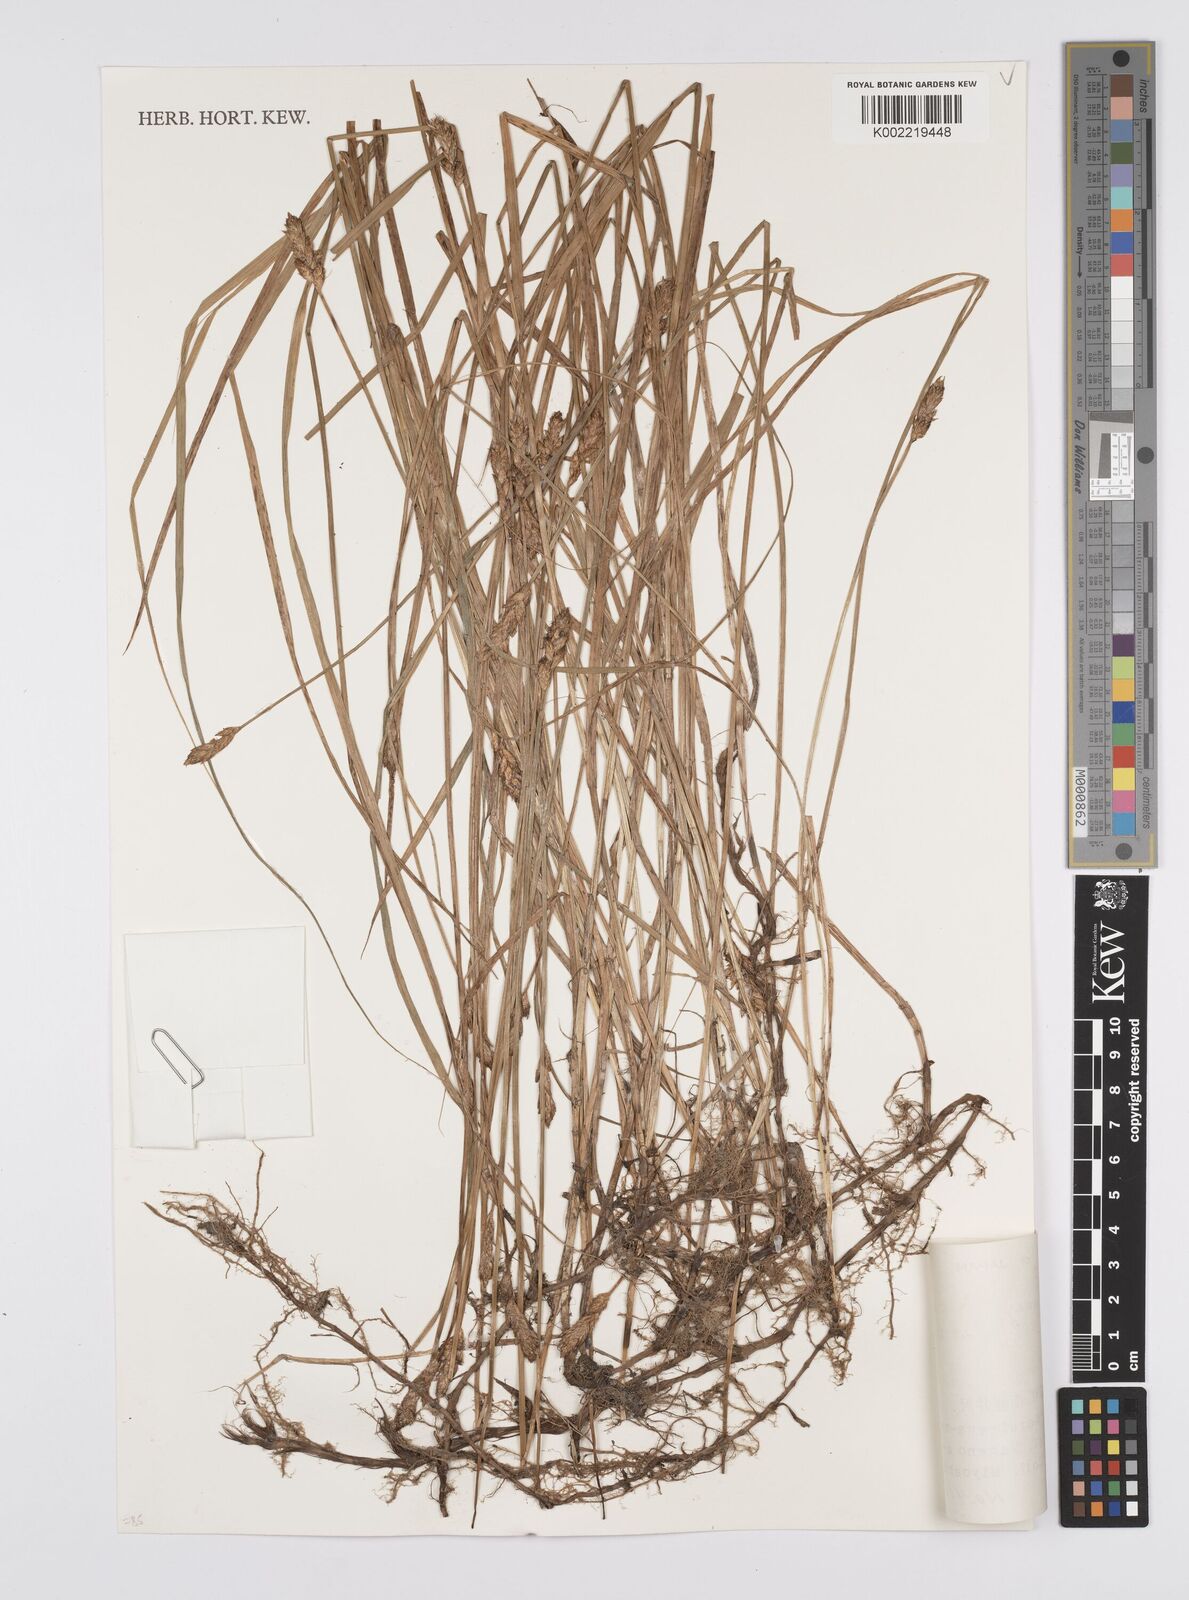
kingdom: Plantae
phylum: Tracheophyta
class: Liliopsida
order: Poales
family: Cyperaceae
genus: Carex
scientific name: Carex disticha
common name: Brown sedge
